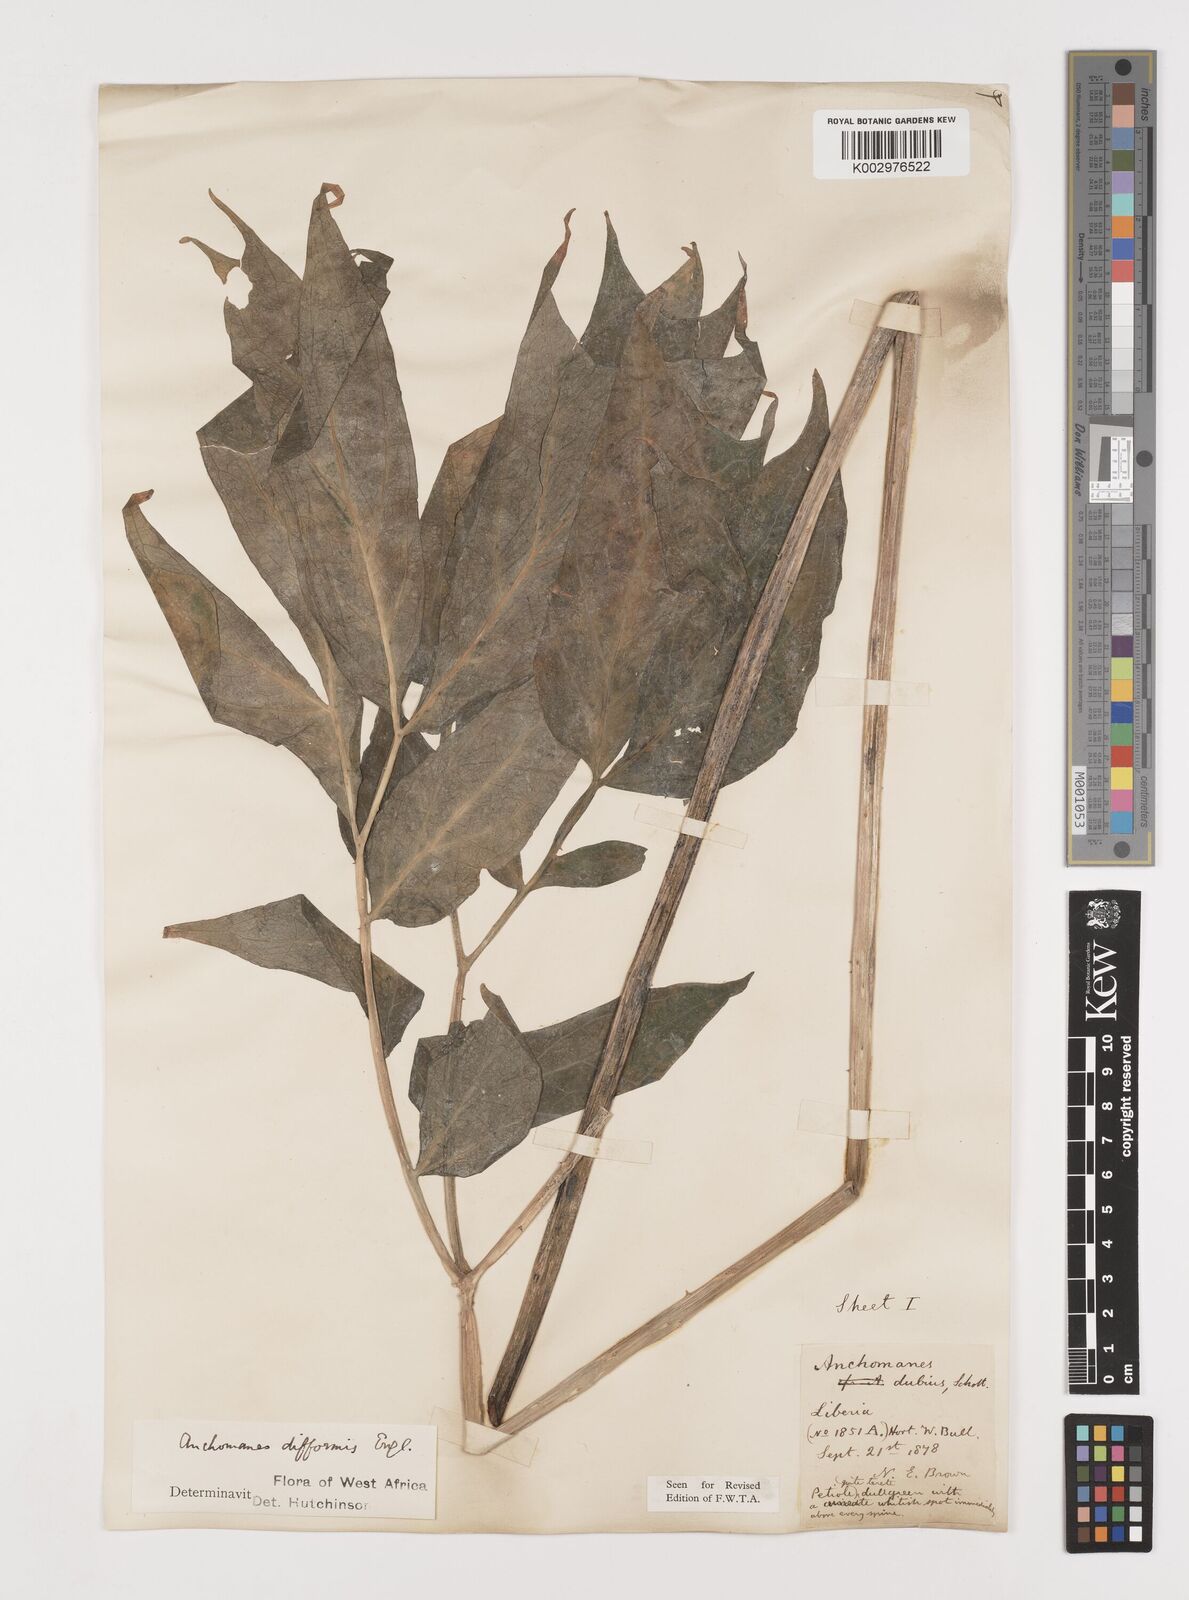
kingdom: Plantae
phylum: Tracheophyta
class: Liliopsida
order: Alismatales
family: Araceae
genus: Anchomanes
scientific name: Anchomanes difformis
